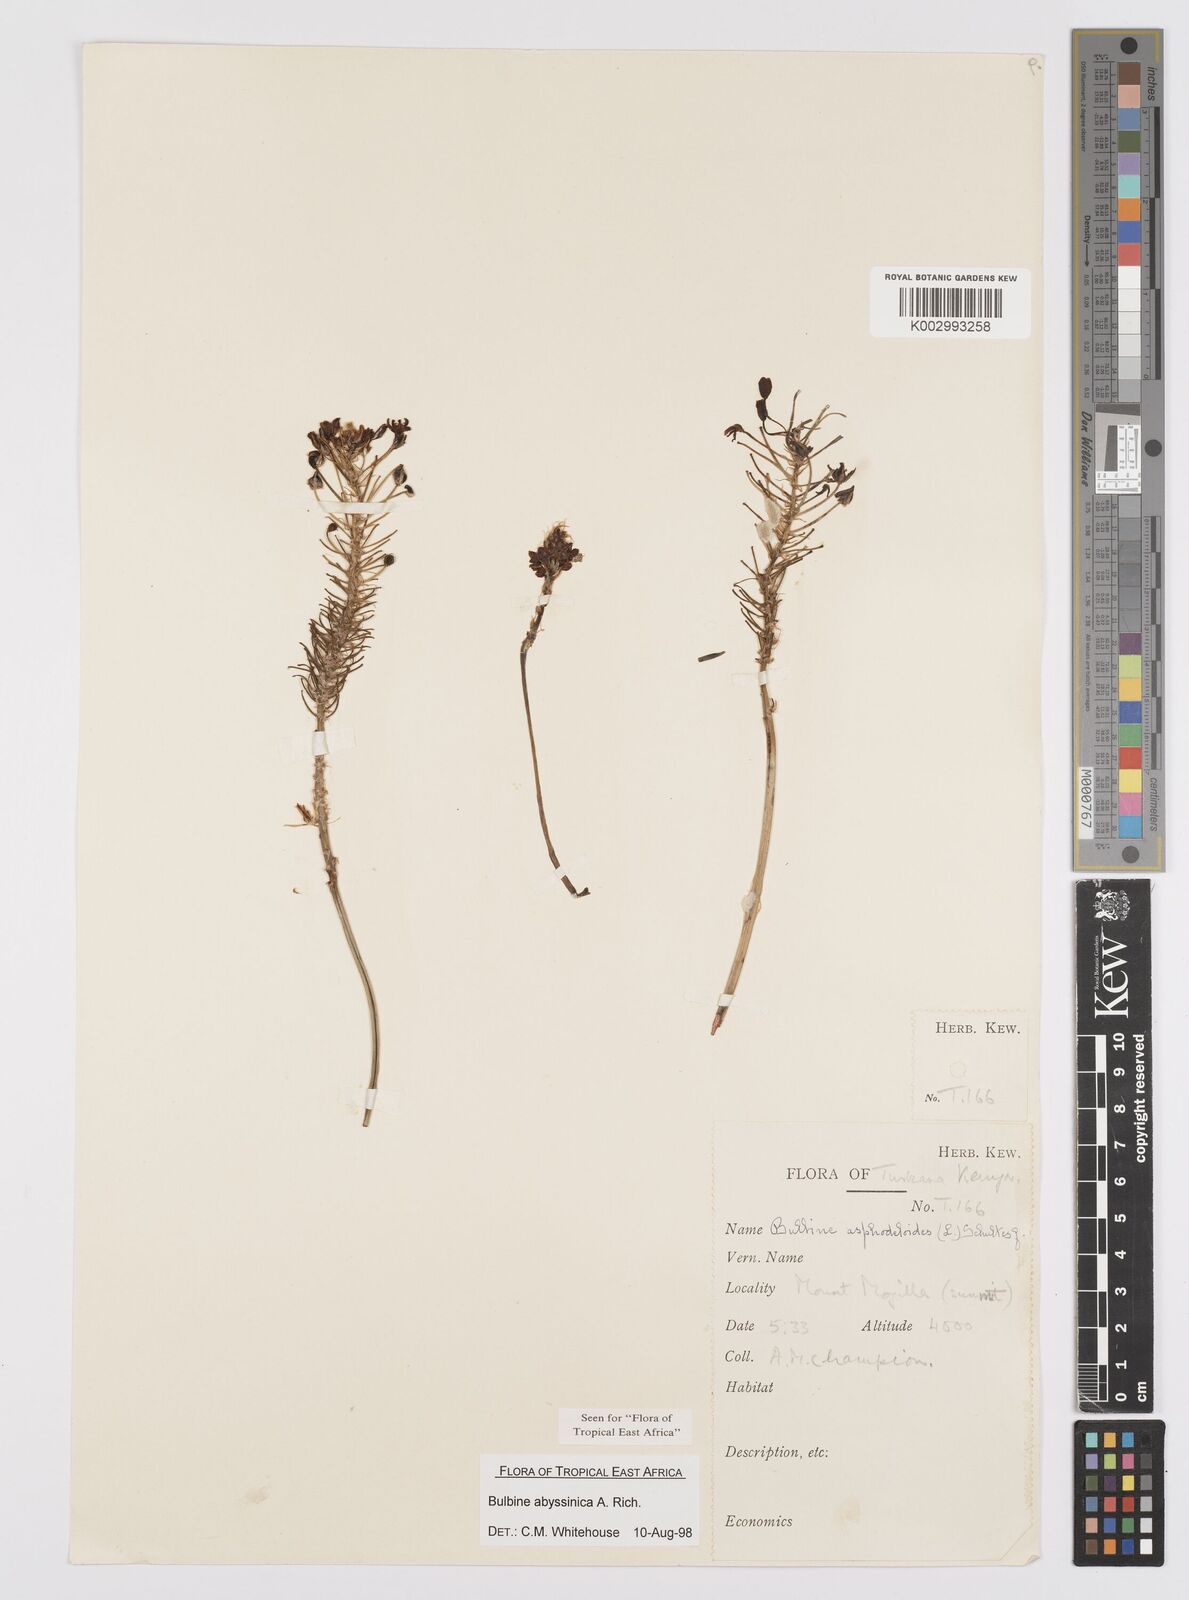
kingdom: Plantae
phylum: Tracheophyta
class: Liliopsida
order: Asparagales
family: Asphodelaceae
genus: Bulbine
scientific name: Bulbine abyssinica
